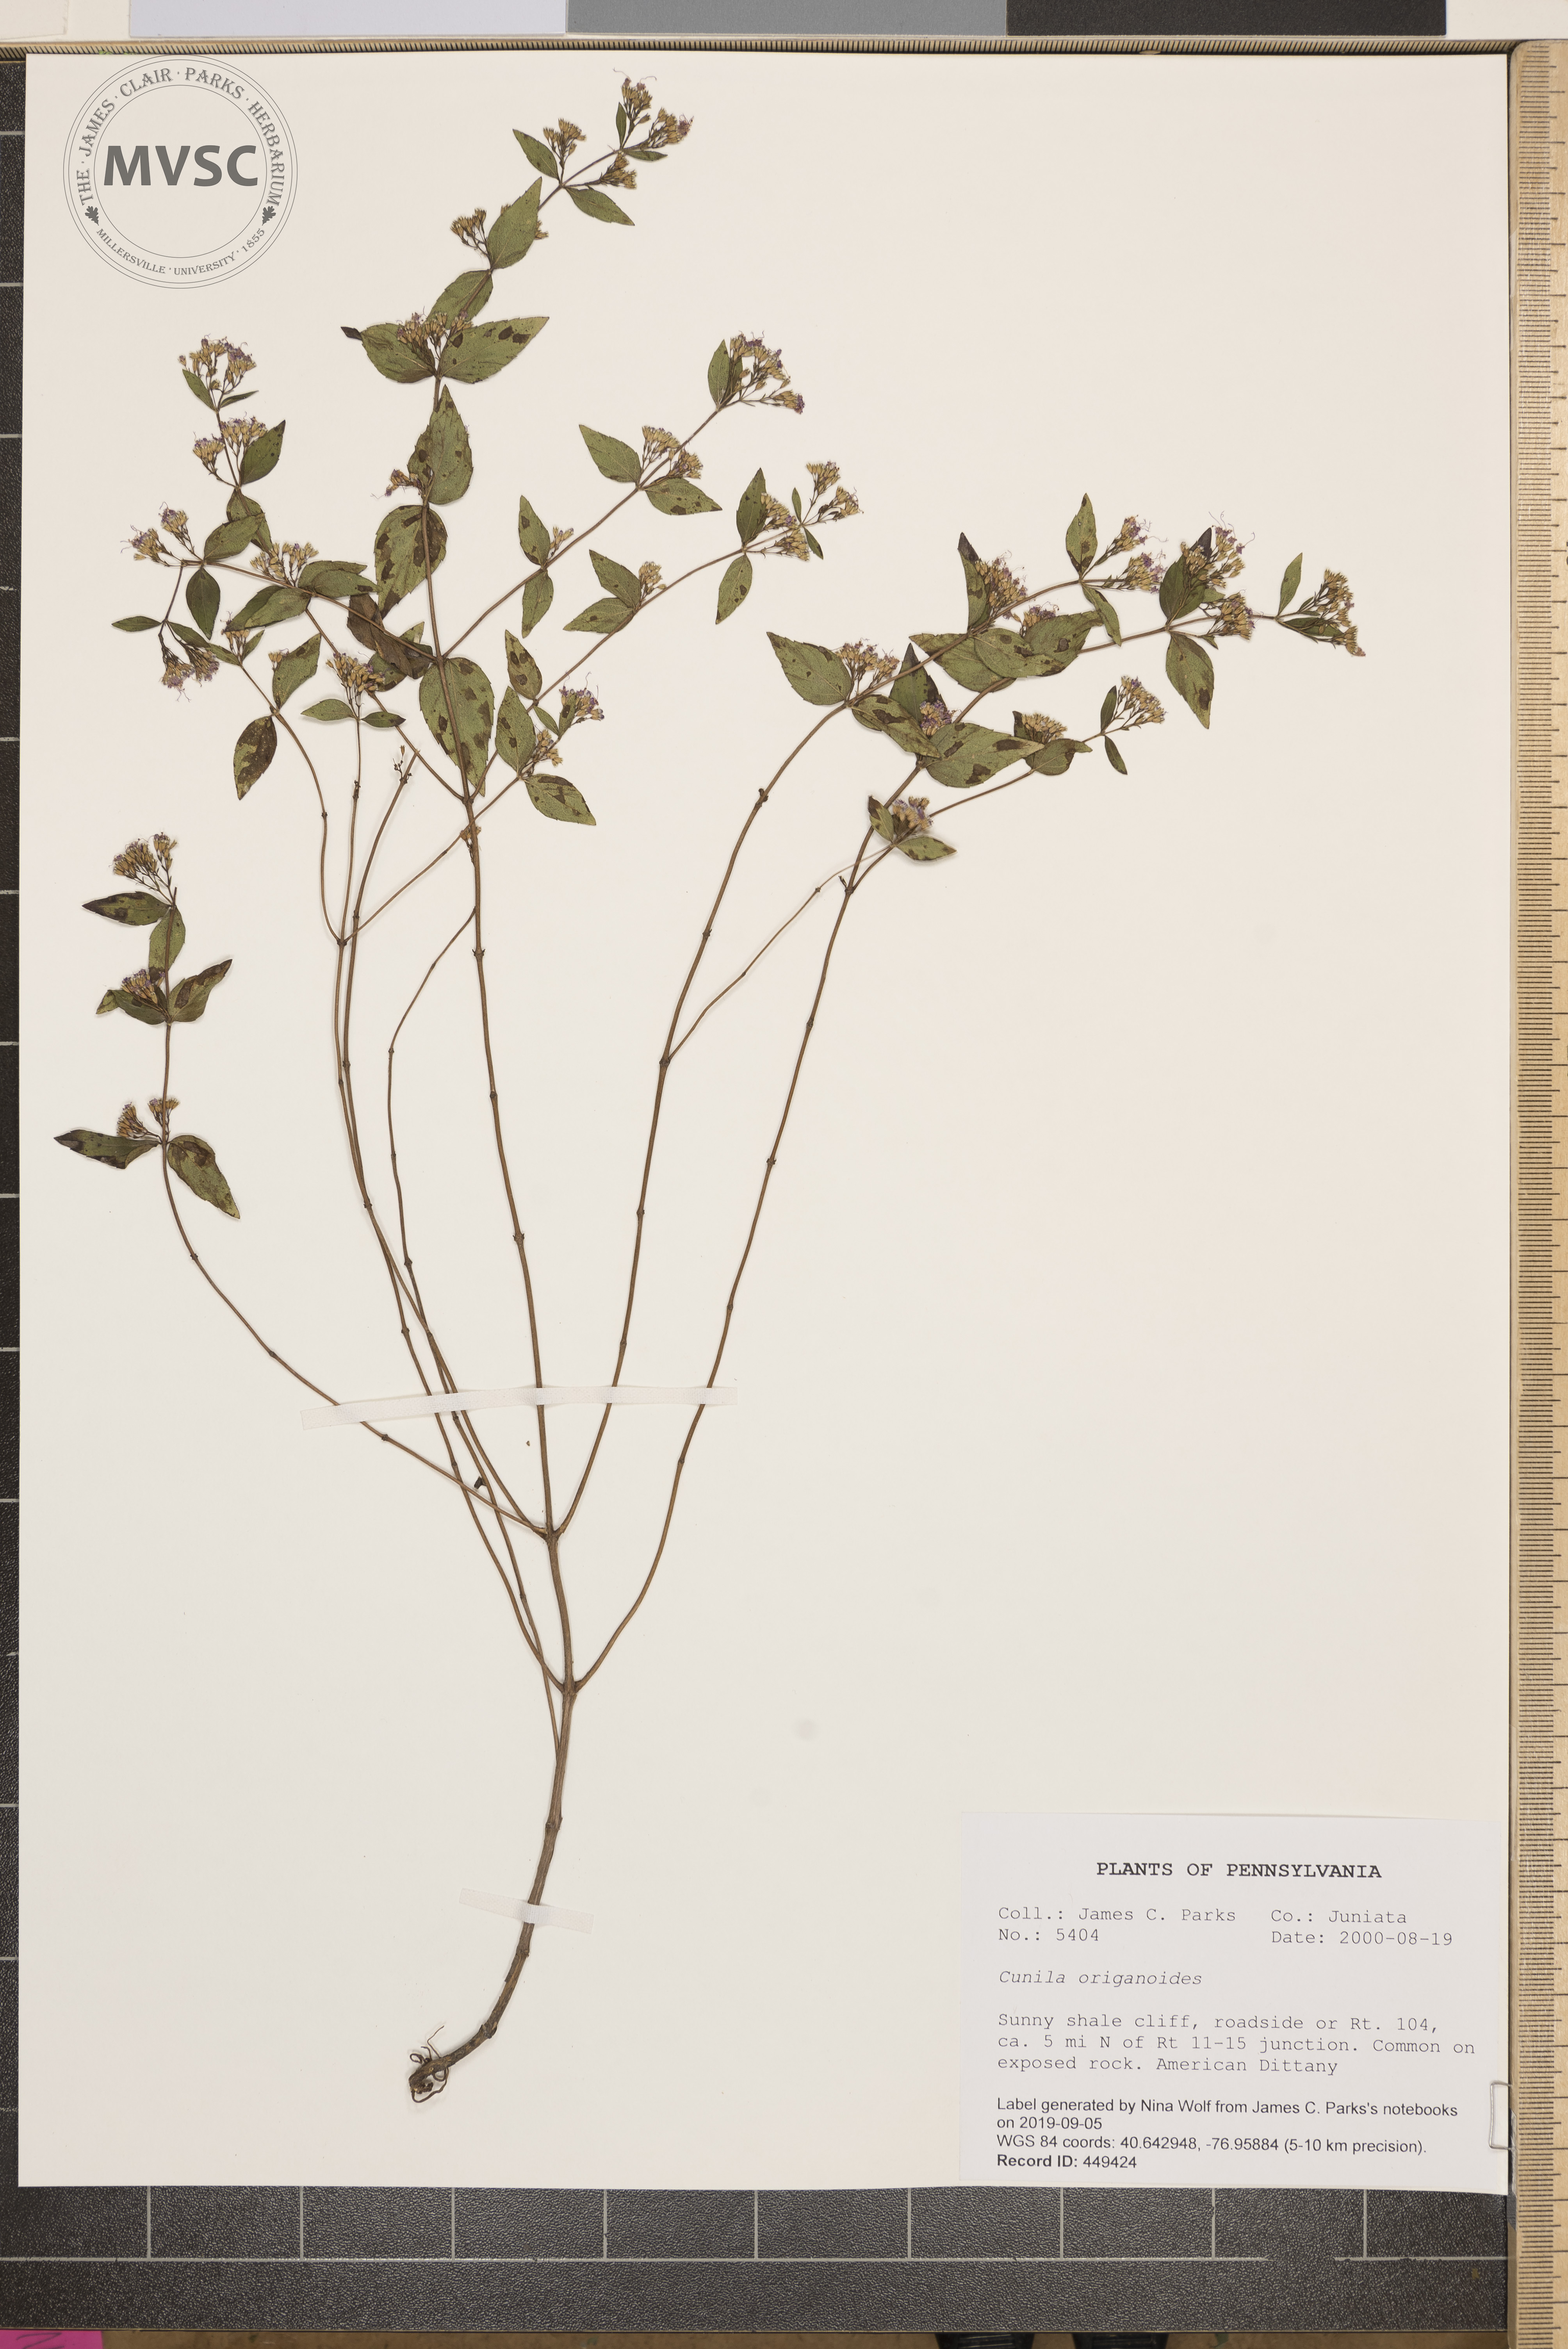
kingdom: Plantae
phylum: Tracheophyta
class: Magnoliopsida
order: Lamiales
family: Lamiaceae
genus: Cunila
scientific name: Cunila origanoides
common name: American dittany
